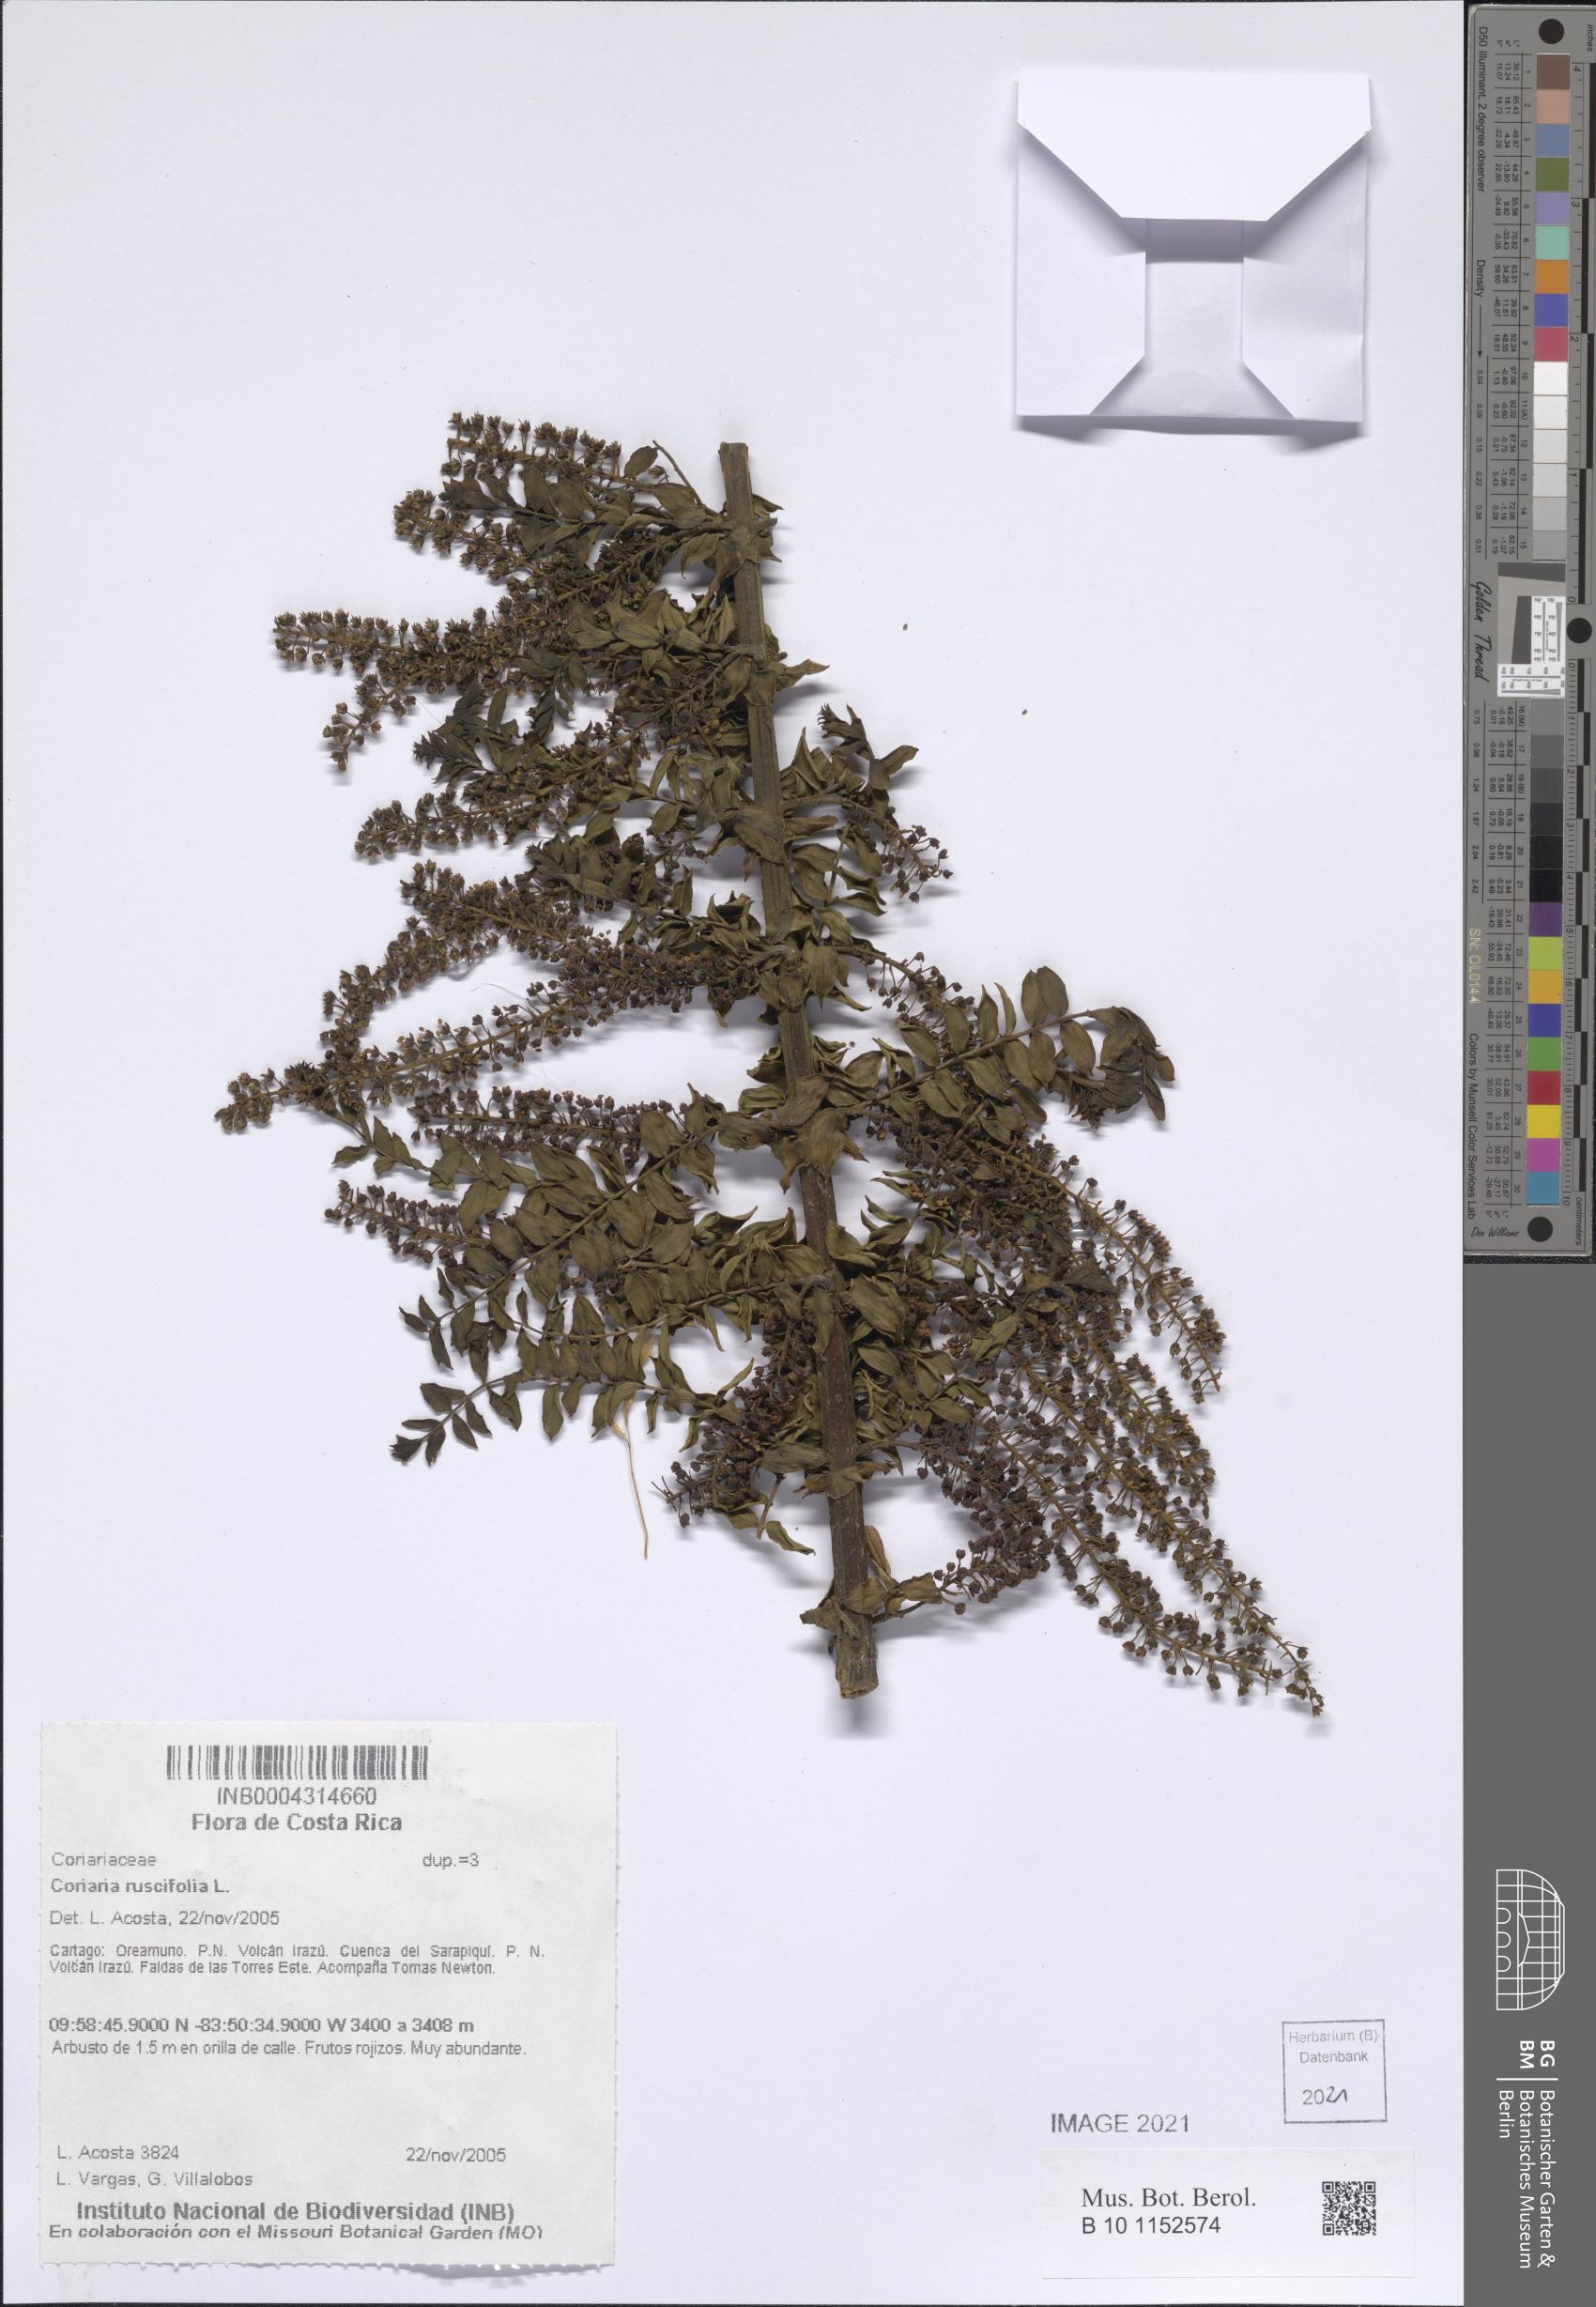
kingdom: Plantae
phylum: Tracheophyta
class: Magnoliopsida
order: Cucurbitales
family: Coriariaceae
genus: Coriaria
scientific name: Coriaria ruscifolia
